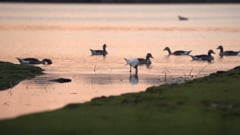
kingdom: Animalia
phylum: Chordata
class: Aves
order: Pelecaniformes
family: Threskiornithidae
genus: Platalea
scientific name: Platalea leucorodia
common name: Eurasian spoonbill
